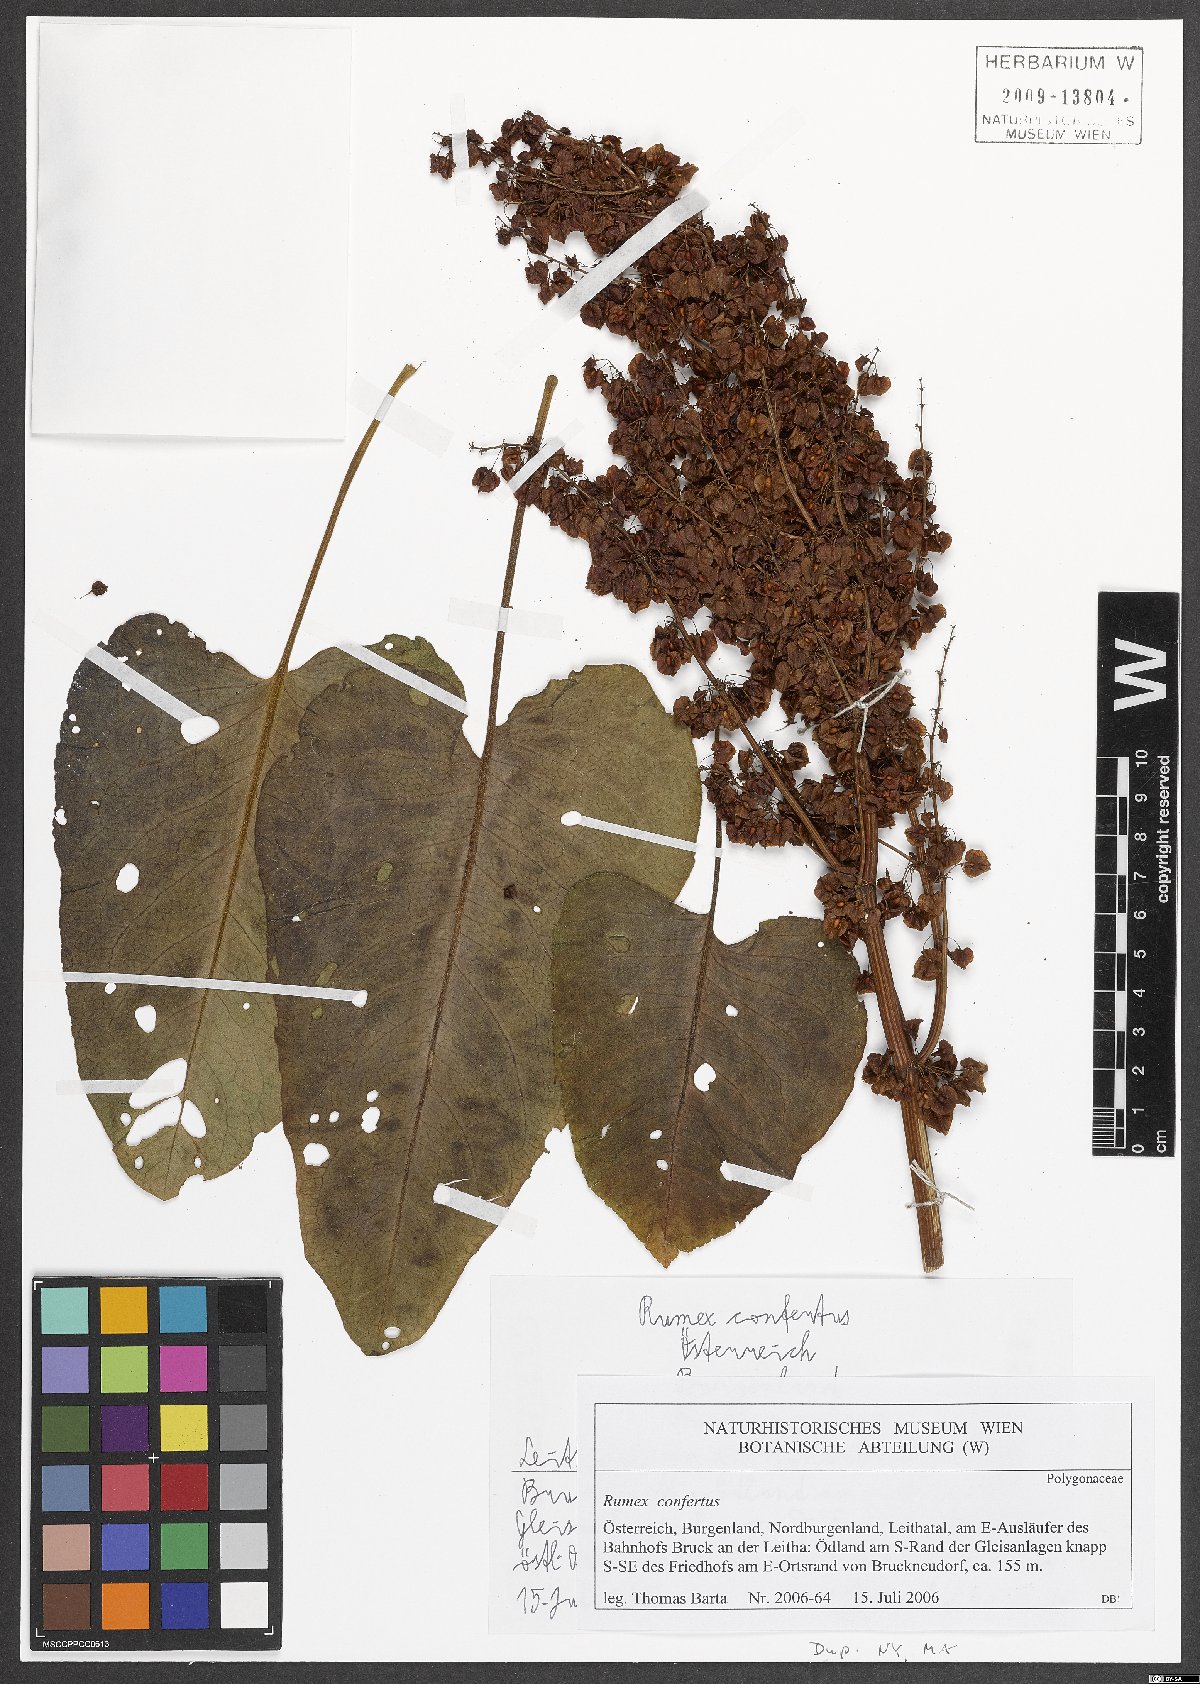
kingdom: Plantae
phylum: Tracheophyta
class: Magnoliopsida
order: Caryophyllales
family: Polygonaceae
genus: Rumex
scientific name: Rumex confertus
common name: Russian dock
